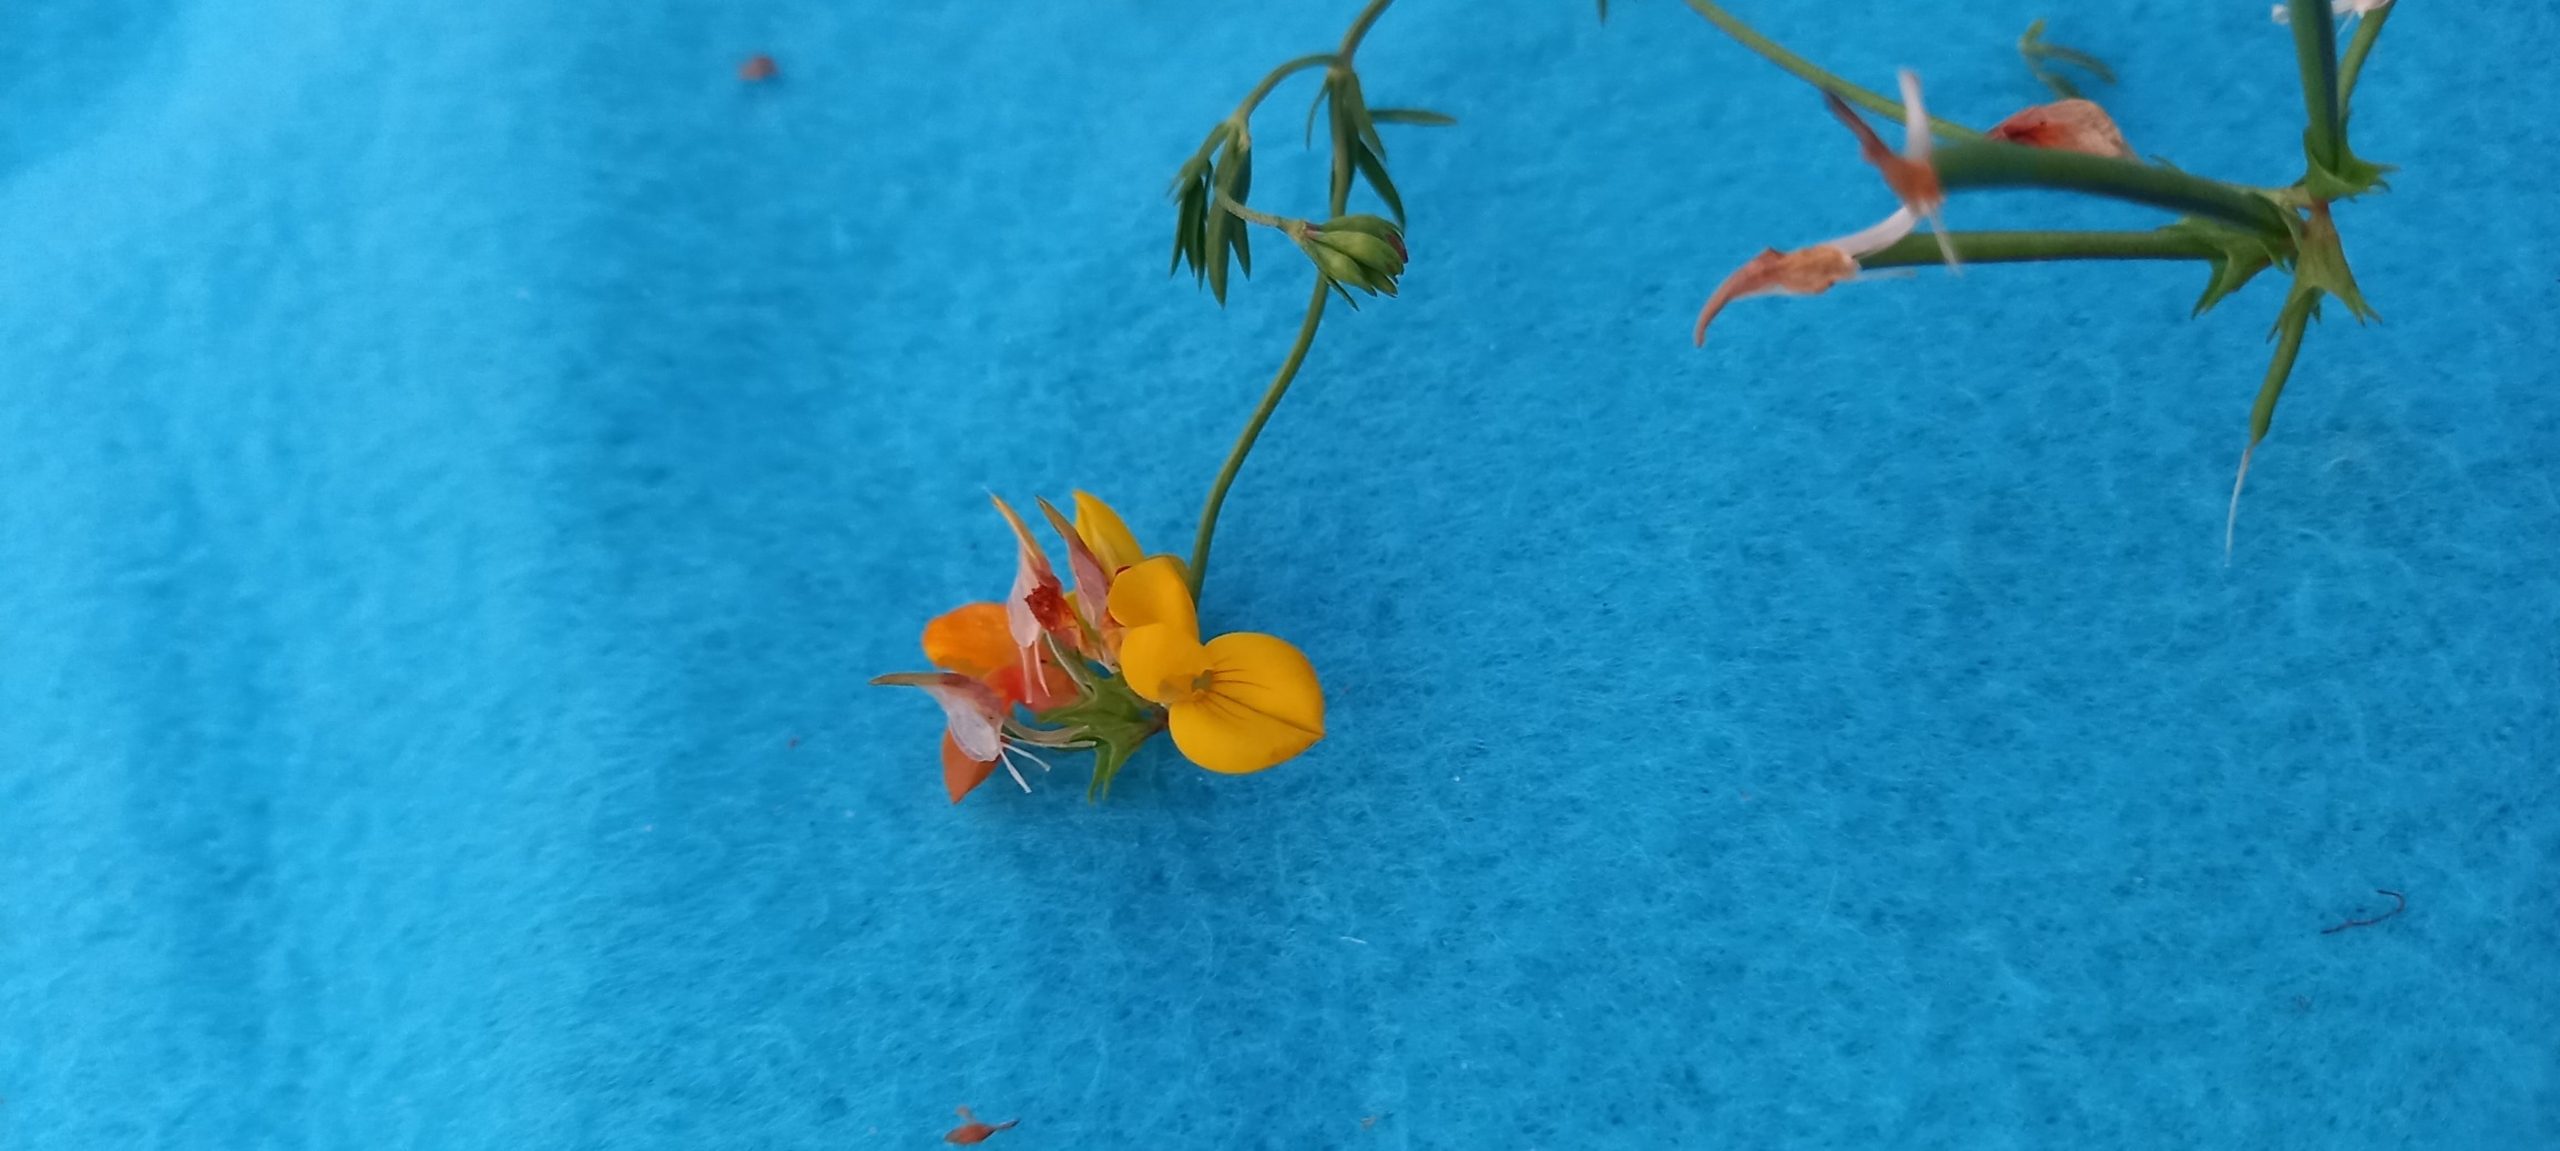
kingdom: Plantae
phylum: Tracheophyta
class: Magnoliopsida
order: Fabales
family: Fabaceae
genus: Lotus
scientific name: Lotus tenuis
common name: Smalbladet kællingetand
